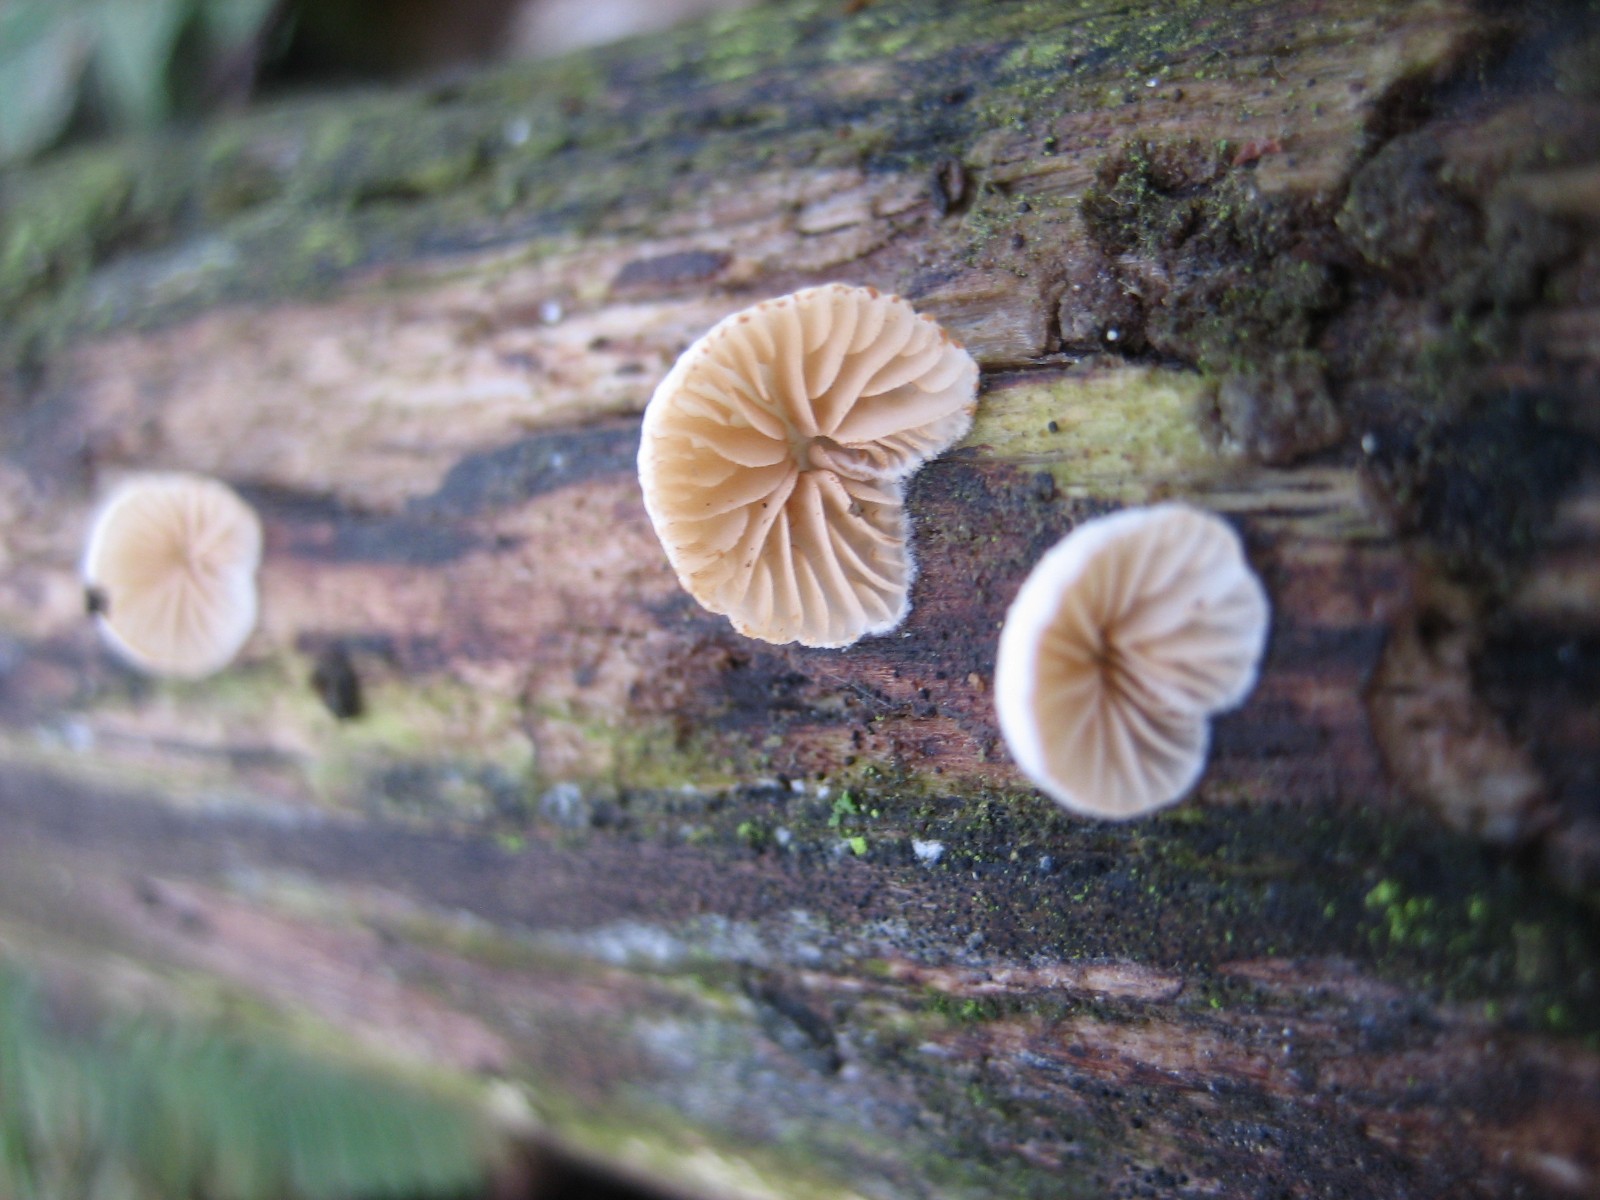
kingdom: Fungi
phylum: Basidiomycota
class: Agaricomycetes
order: Agaricales
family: Crepidotaceae
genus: Crepidotus
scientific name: Crepidotus
